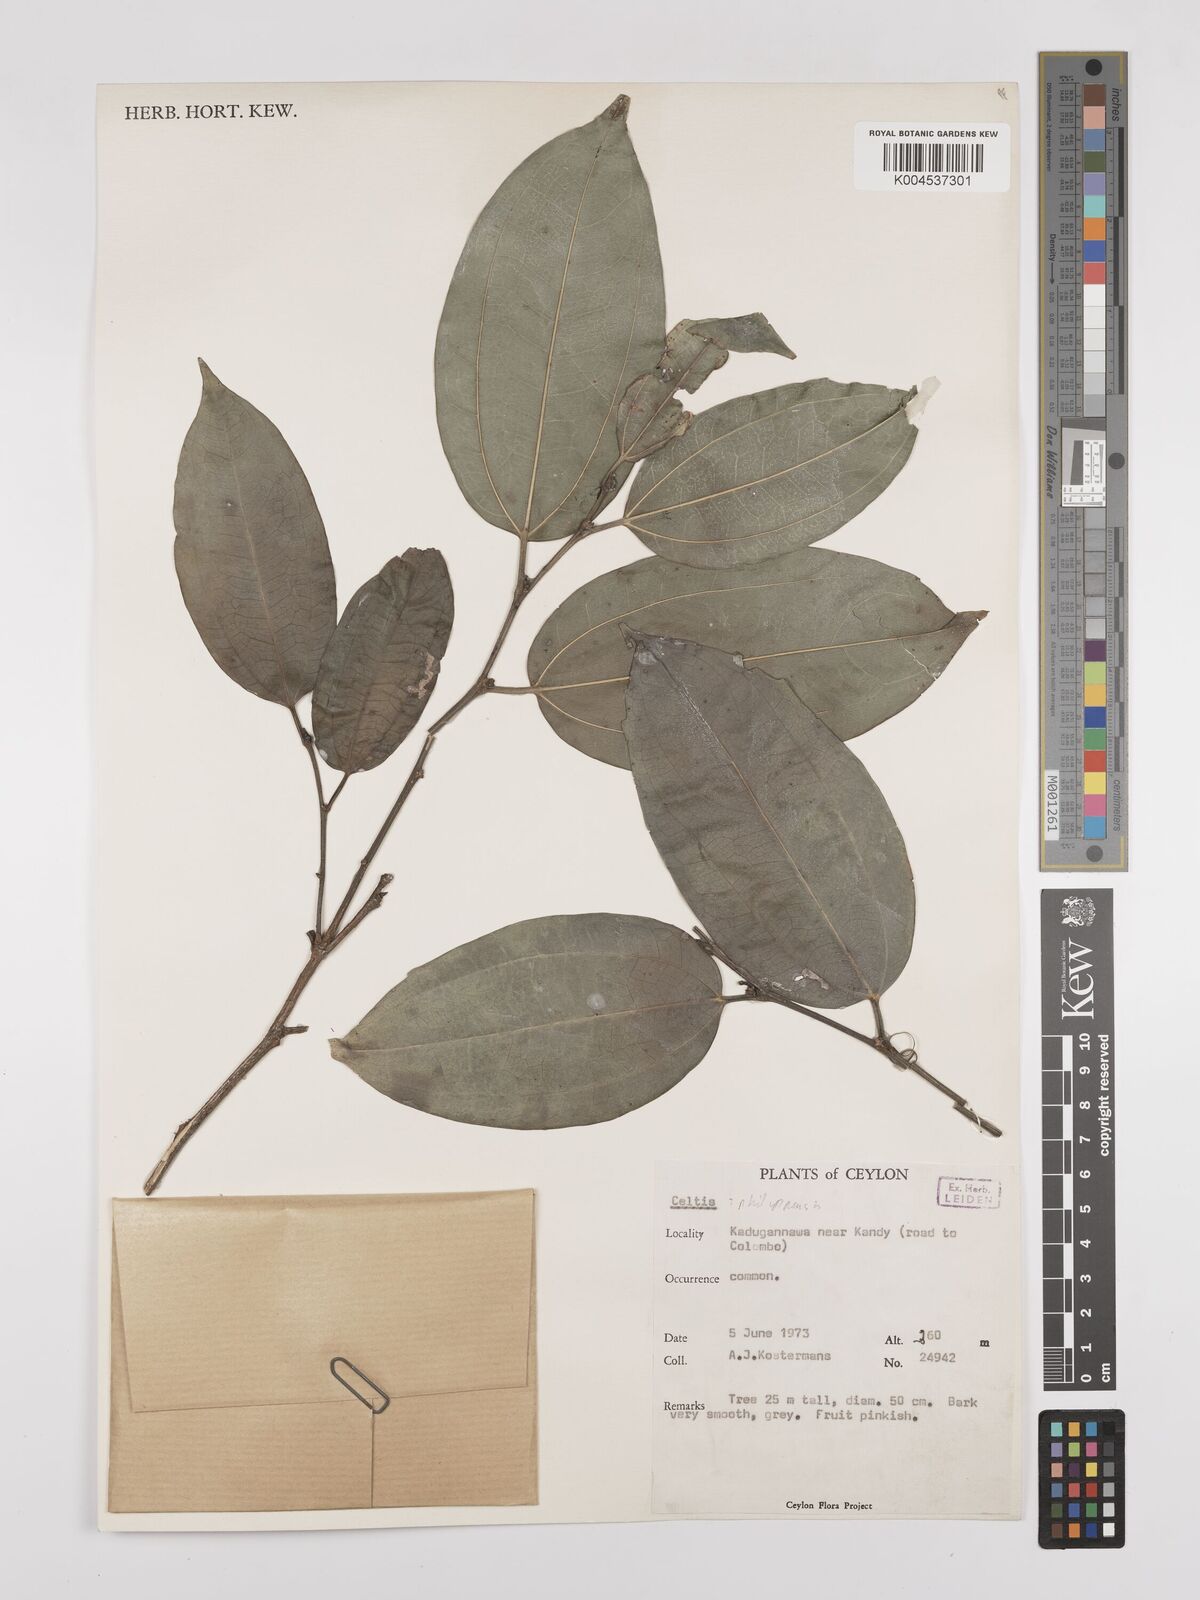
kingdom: Plantae
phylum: Tracheophyta
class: Magnoliopsida
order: Rosales
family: Cannabaceae
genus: Celtis
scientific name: Celtis philippensis
